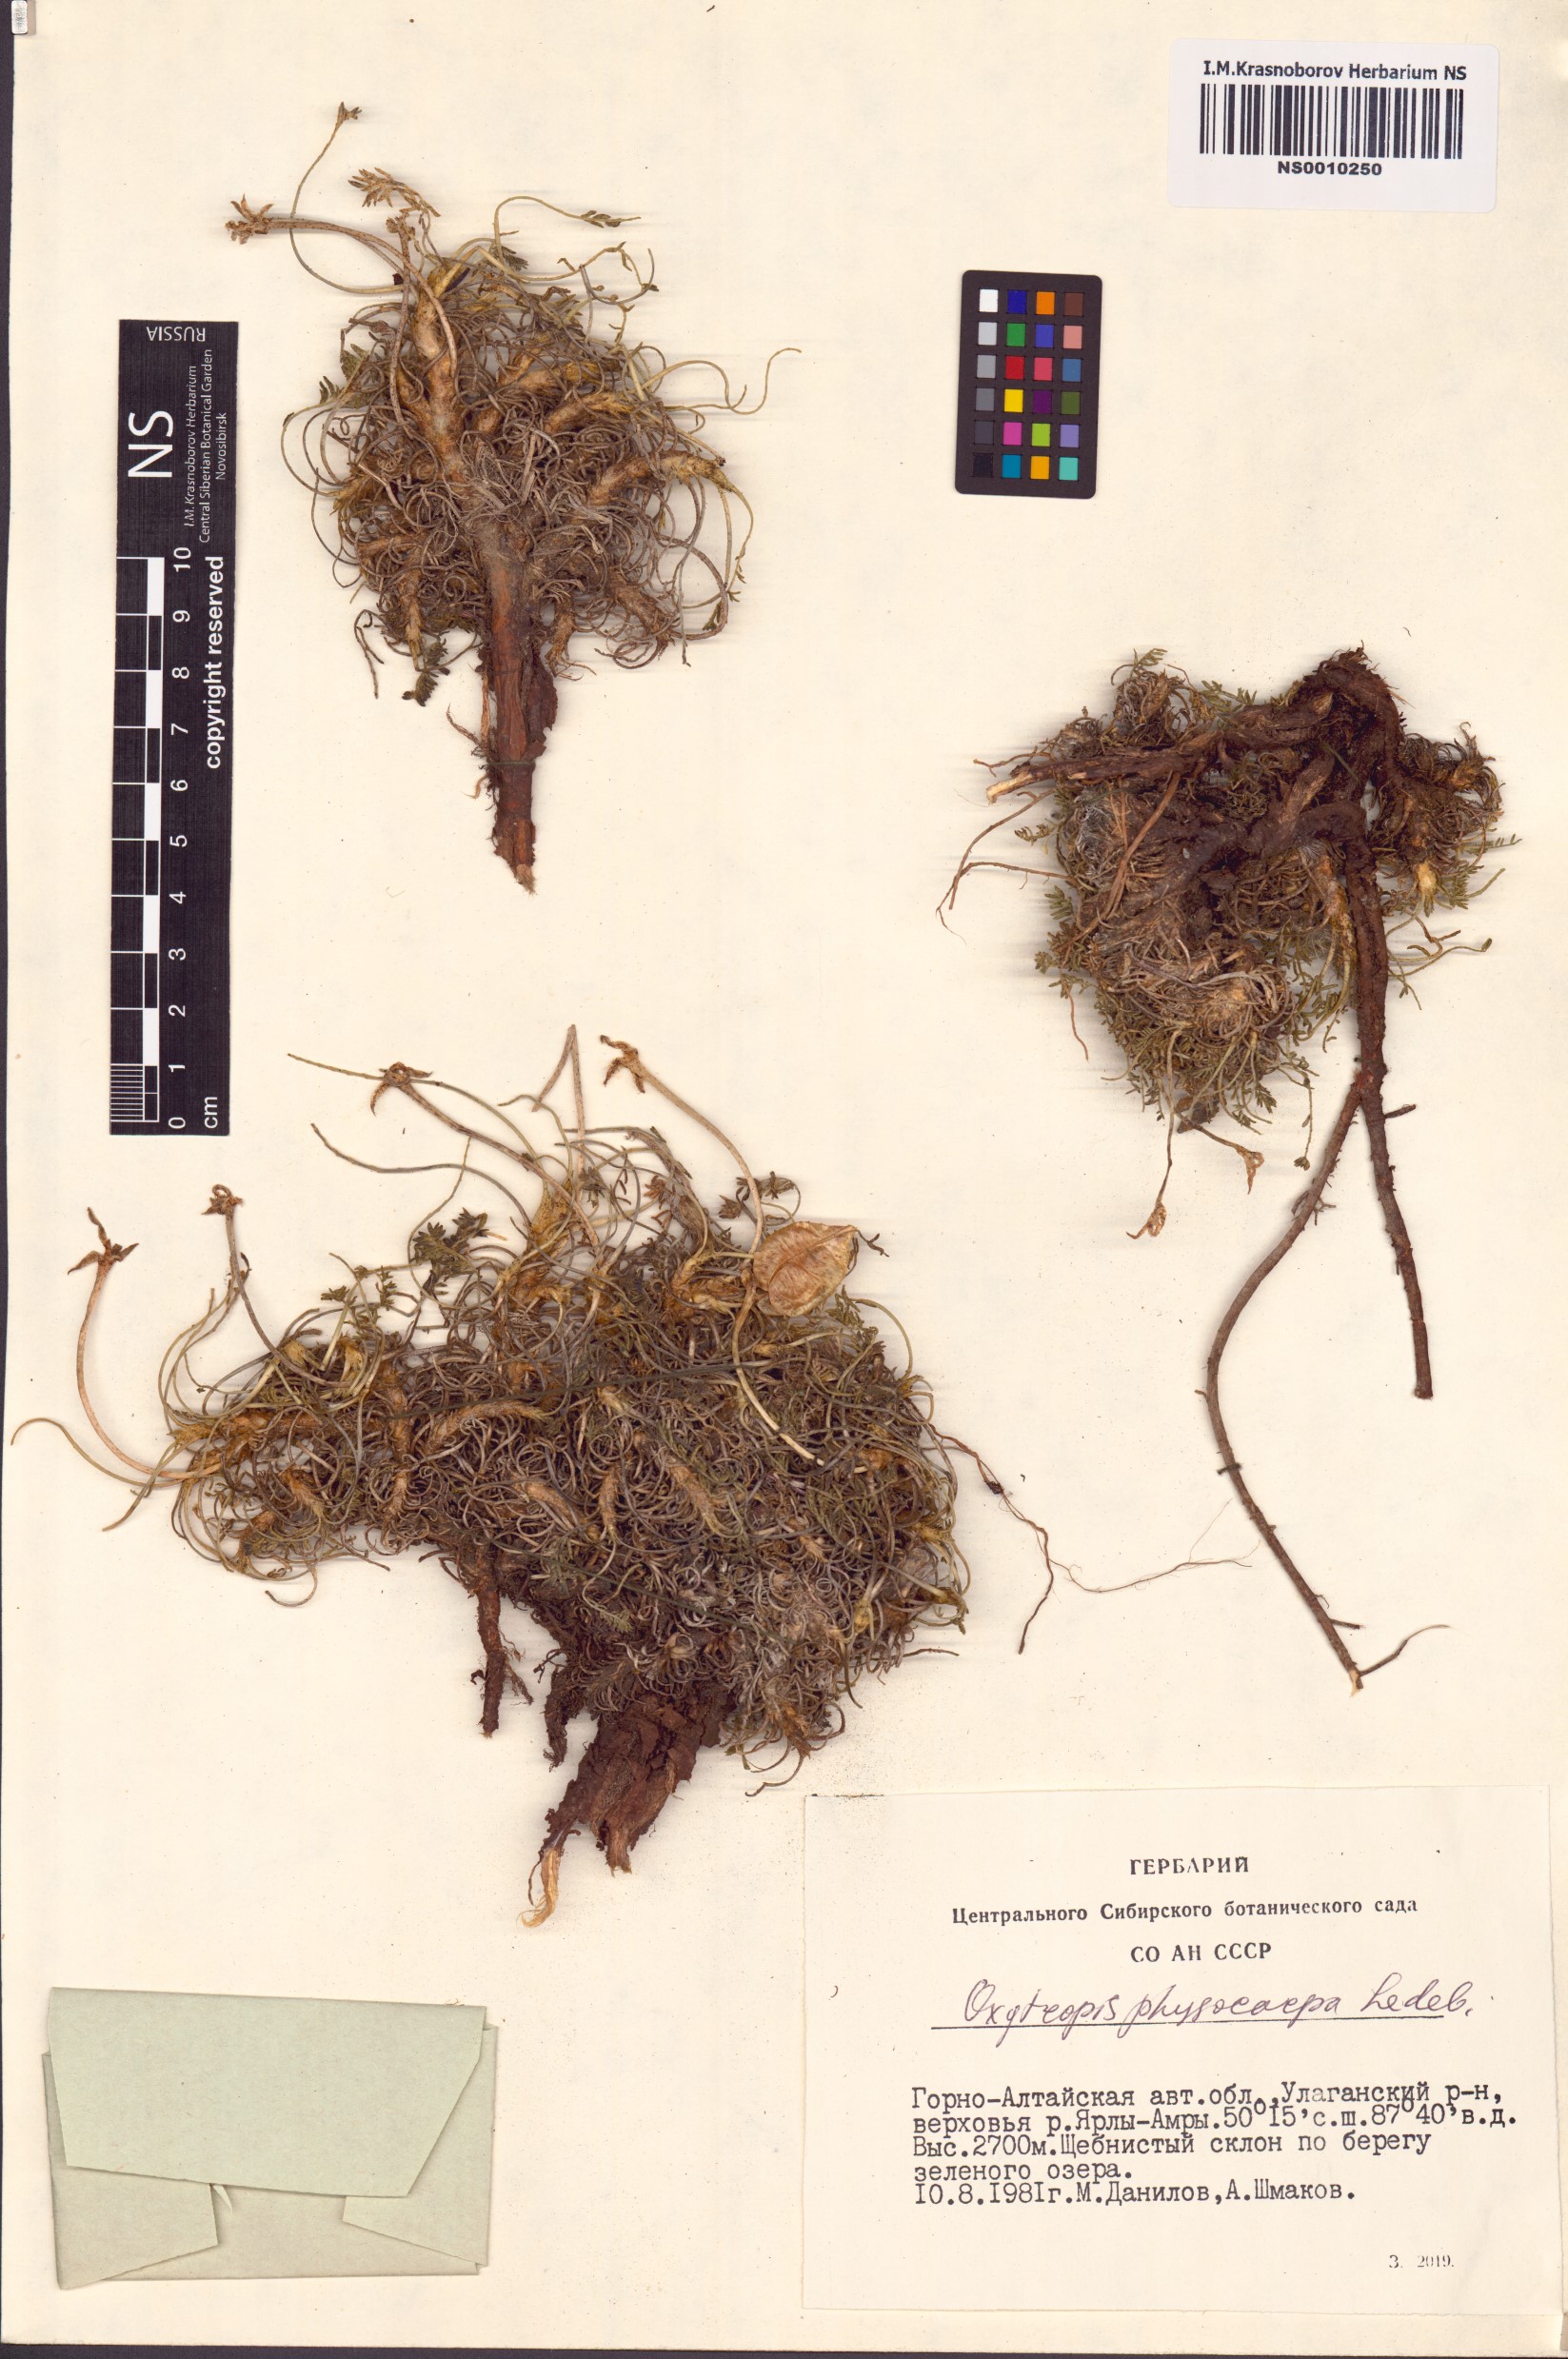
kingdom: Plantae
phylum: Tracheophyta
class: Magnoliopsida
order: Fabales
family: Fabaceae
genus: Oxytropis
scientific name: Oxytropis physocarpa
